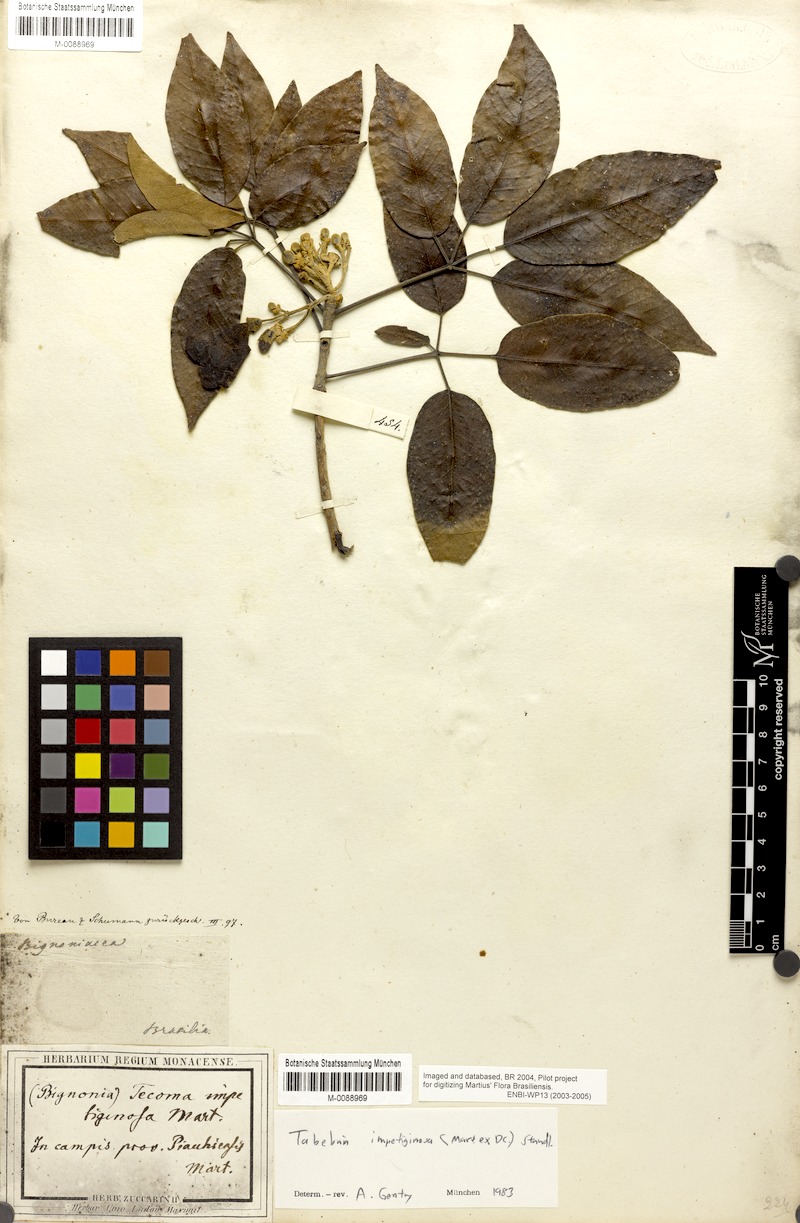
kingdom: Plantae
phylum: Tracheophyta
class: Magnoliopsida
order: Lamiales
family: Bignoniaceae
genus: Handroanthus
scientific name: Handroanthus impetiginosum
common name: Pink trumpet tree
